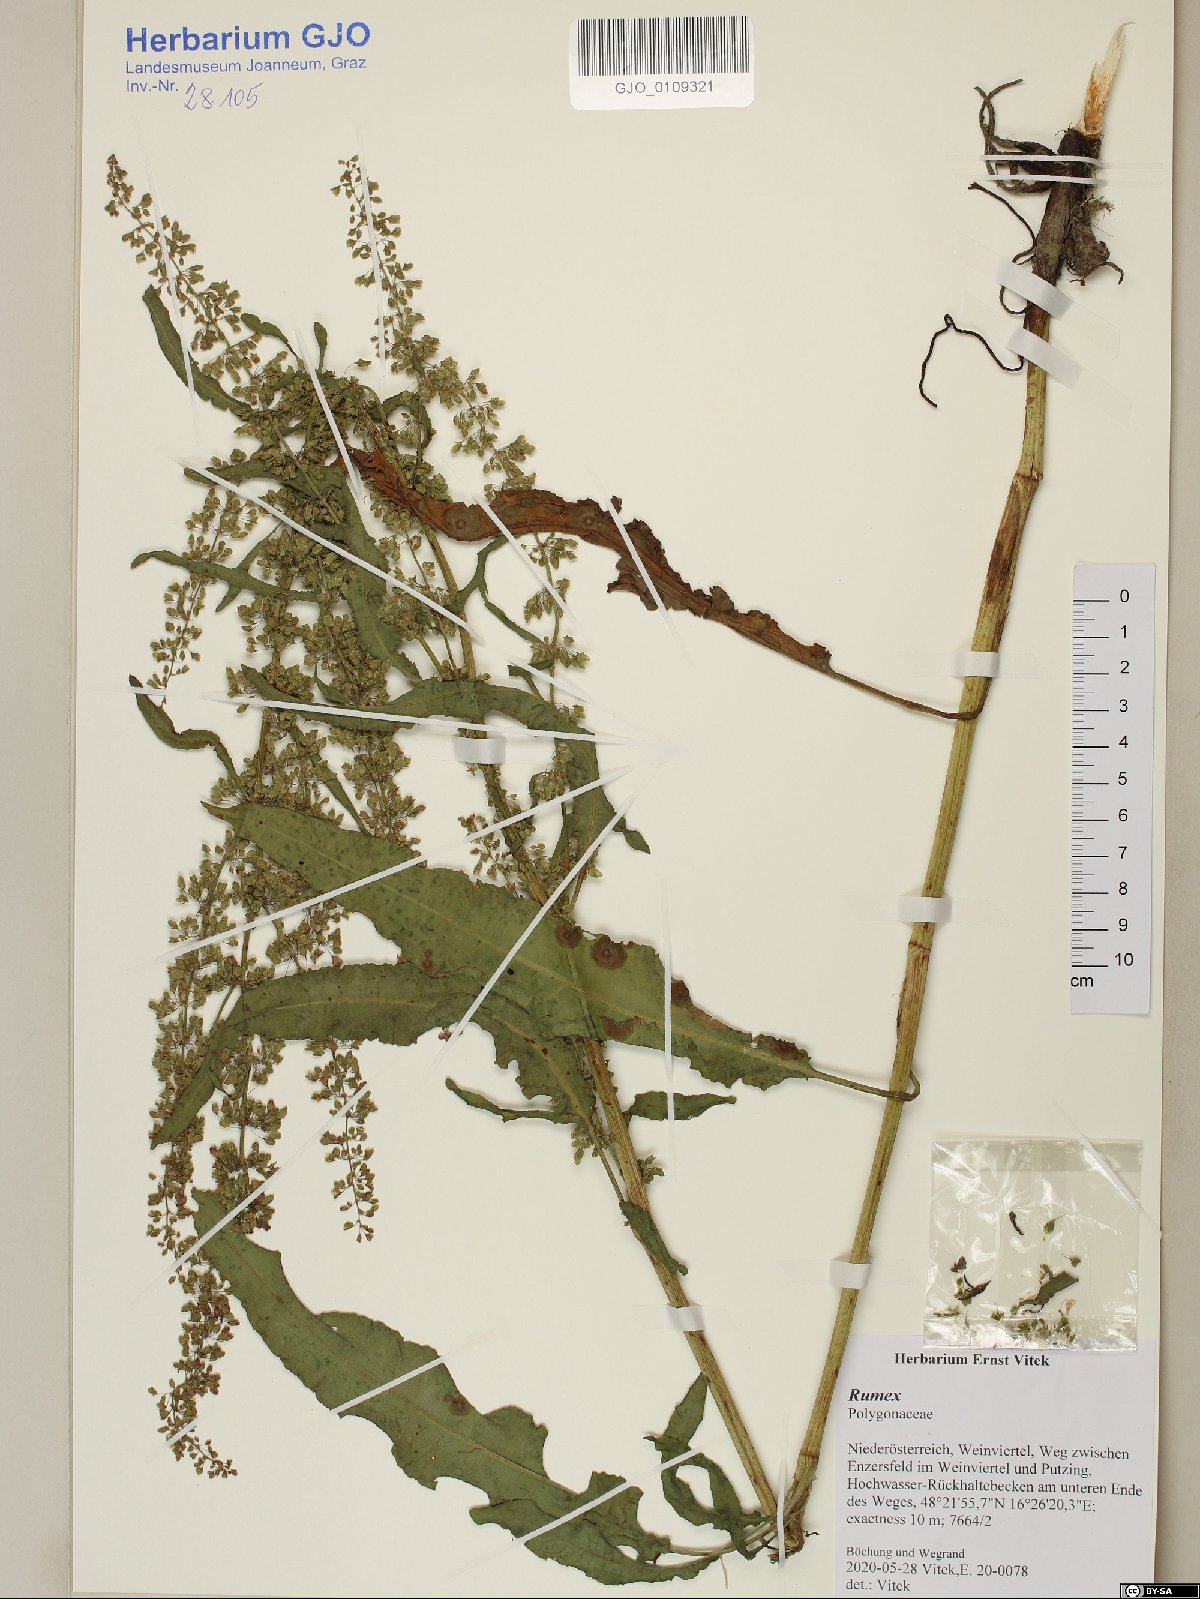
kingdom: Plantae
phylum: Tracheophyta
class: Magnoliopsida
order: Caryophyllales
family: Polygonaceae
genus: Rumex
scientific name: Rumex
